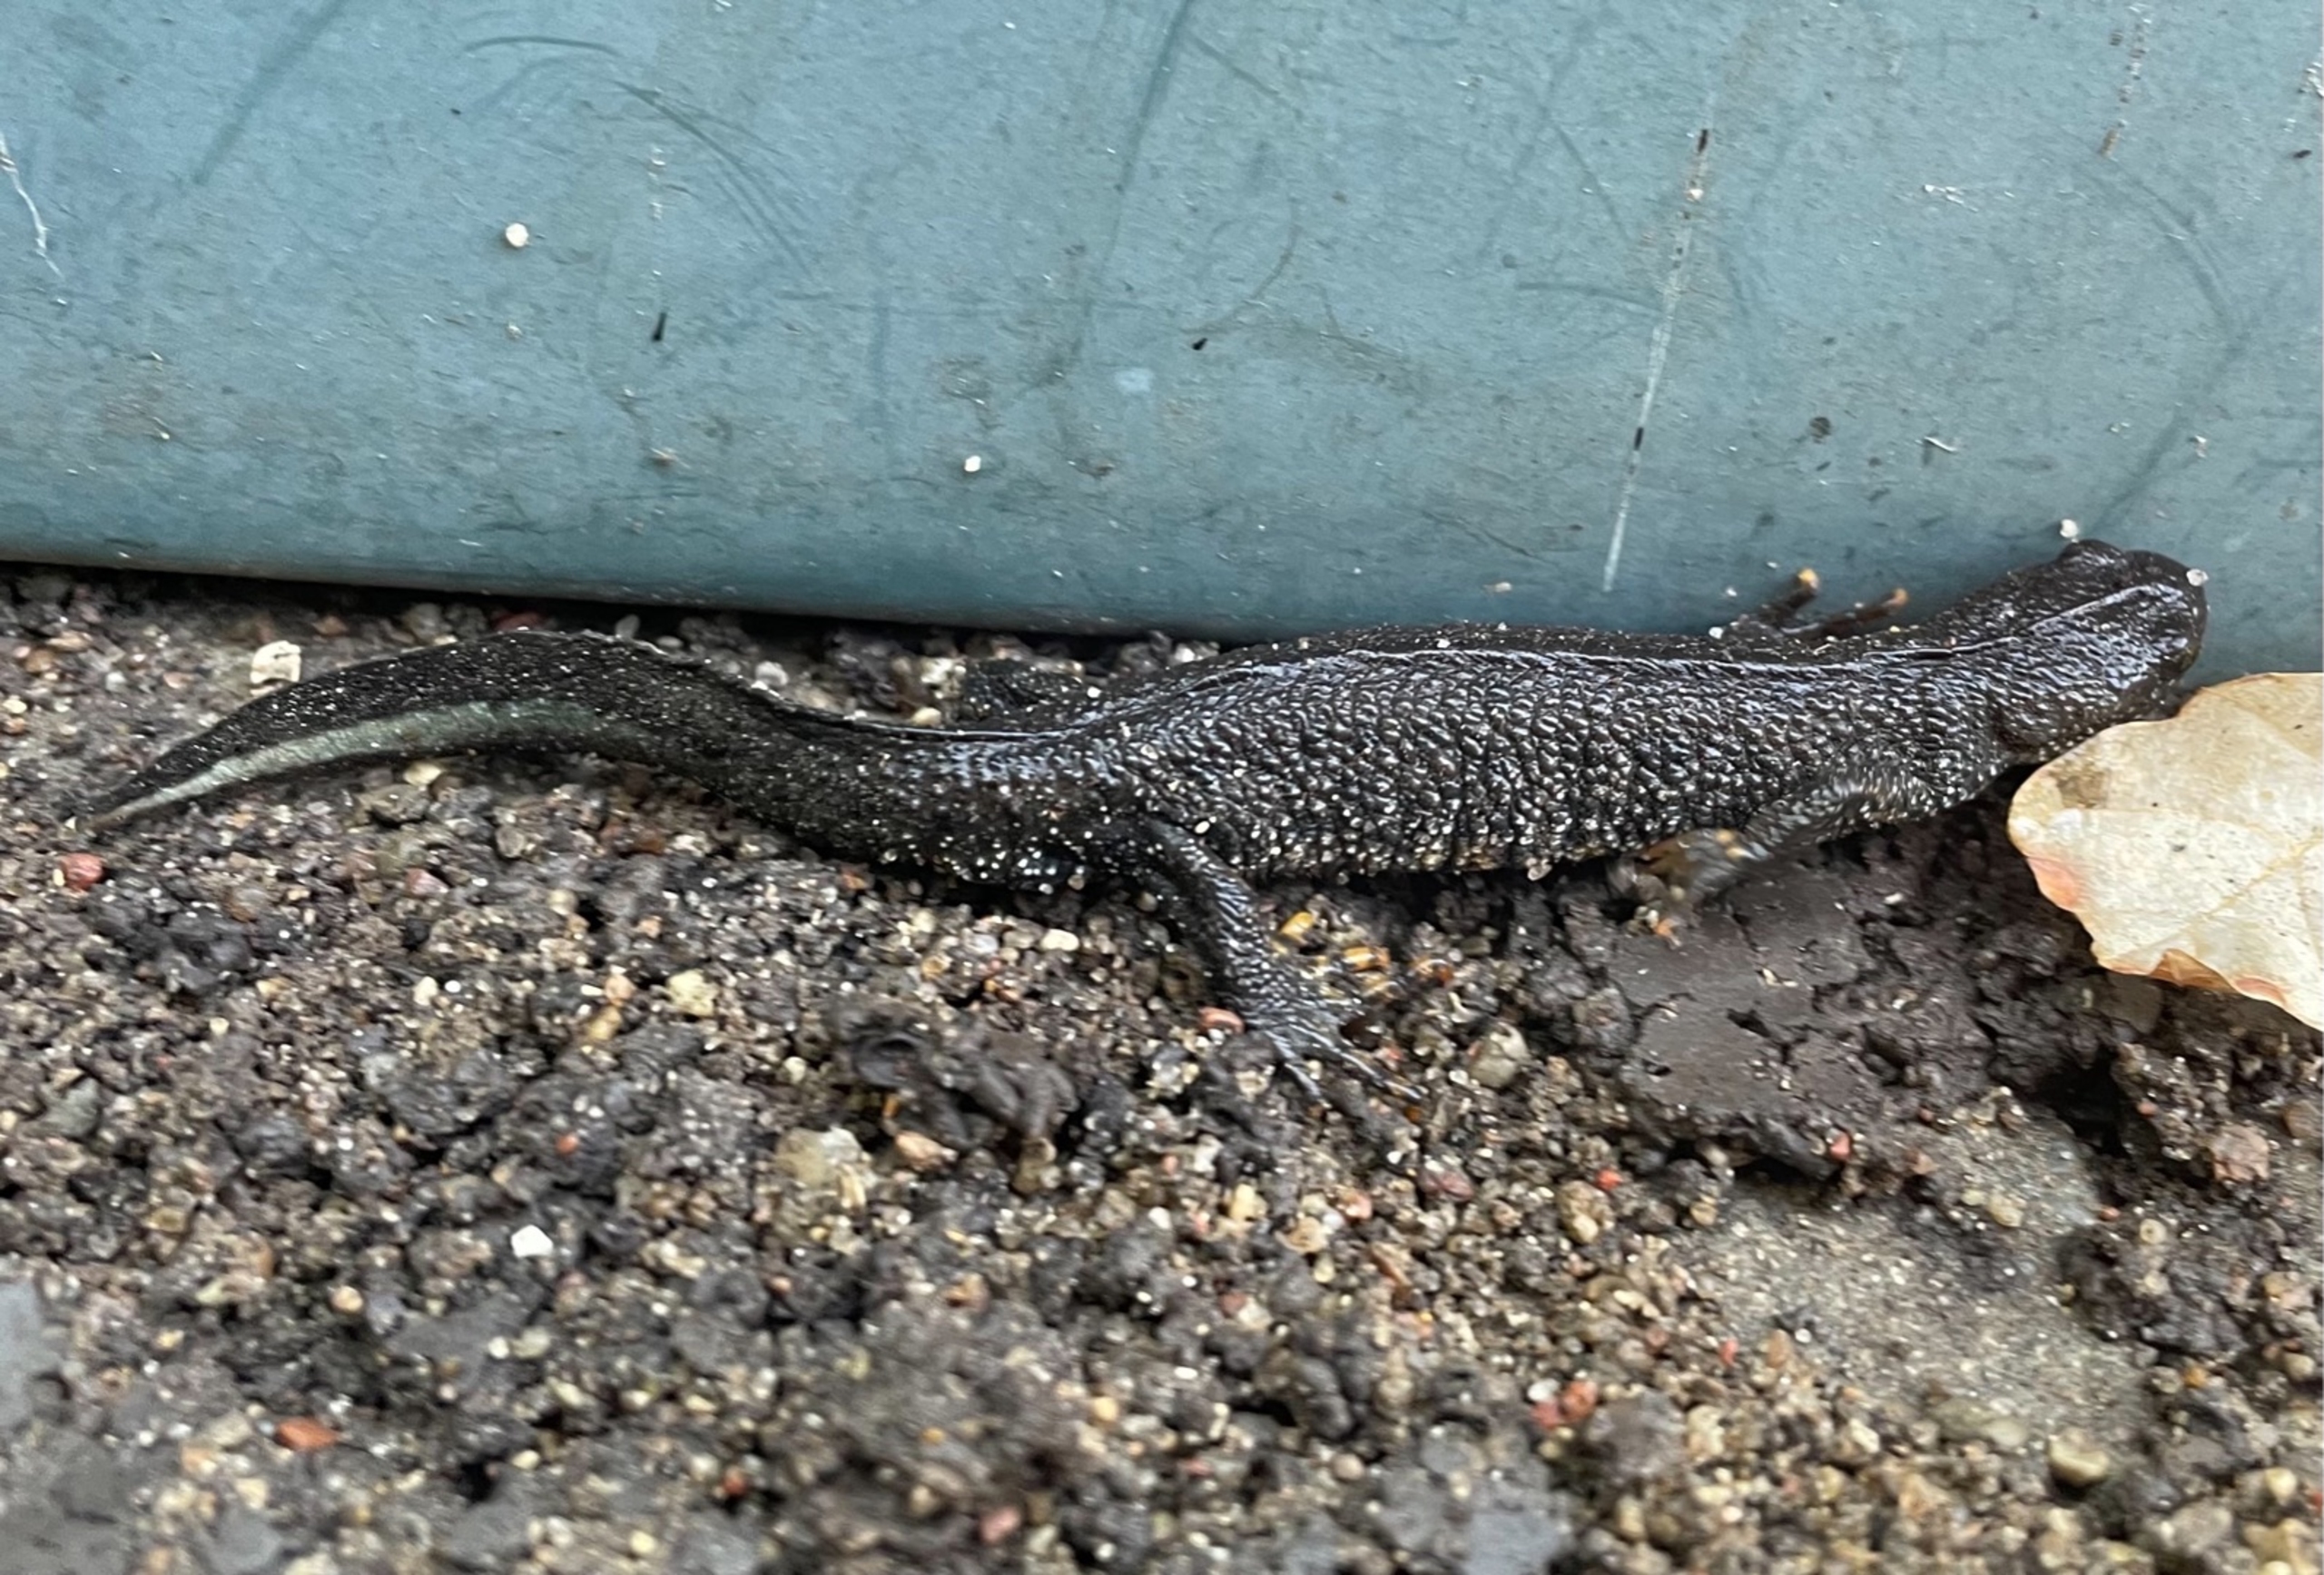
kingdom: Animalia
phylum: Chordata
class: Amphibia
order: Caudata
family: Salamandridae
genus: Triturus
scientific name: Triturus cristatus
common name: Stor vandsalamander
